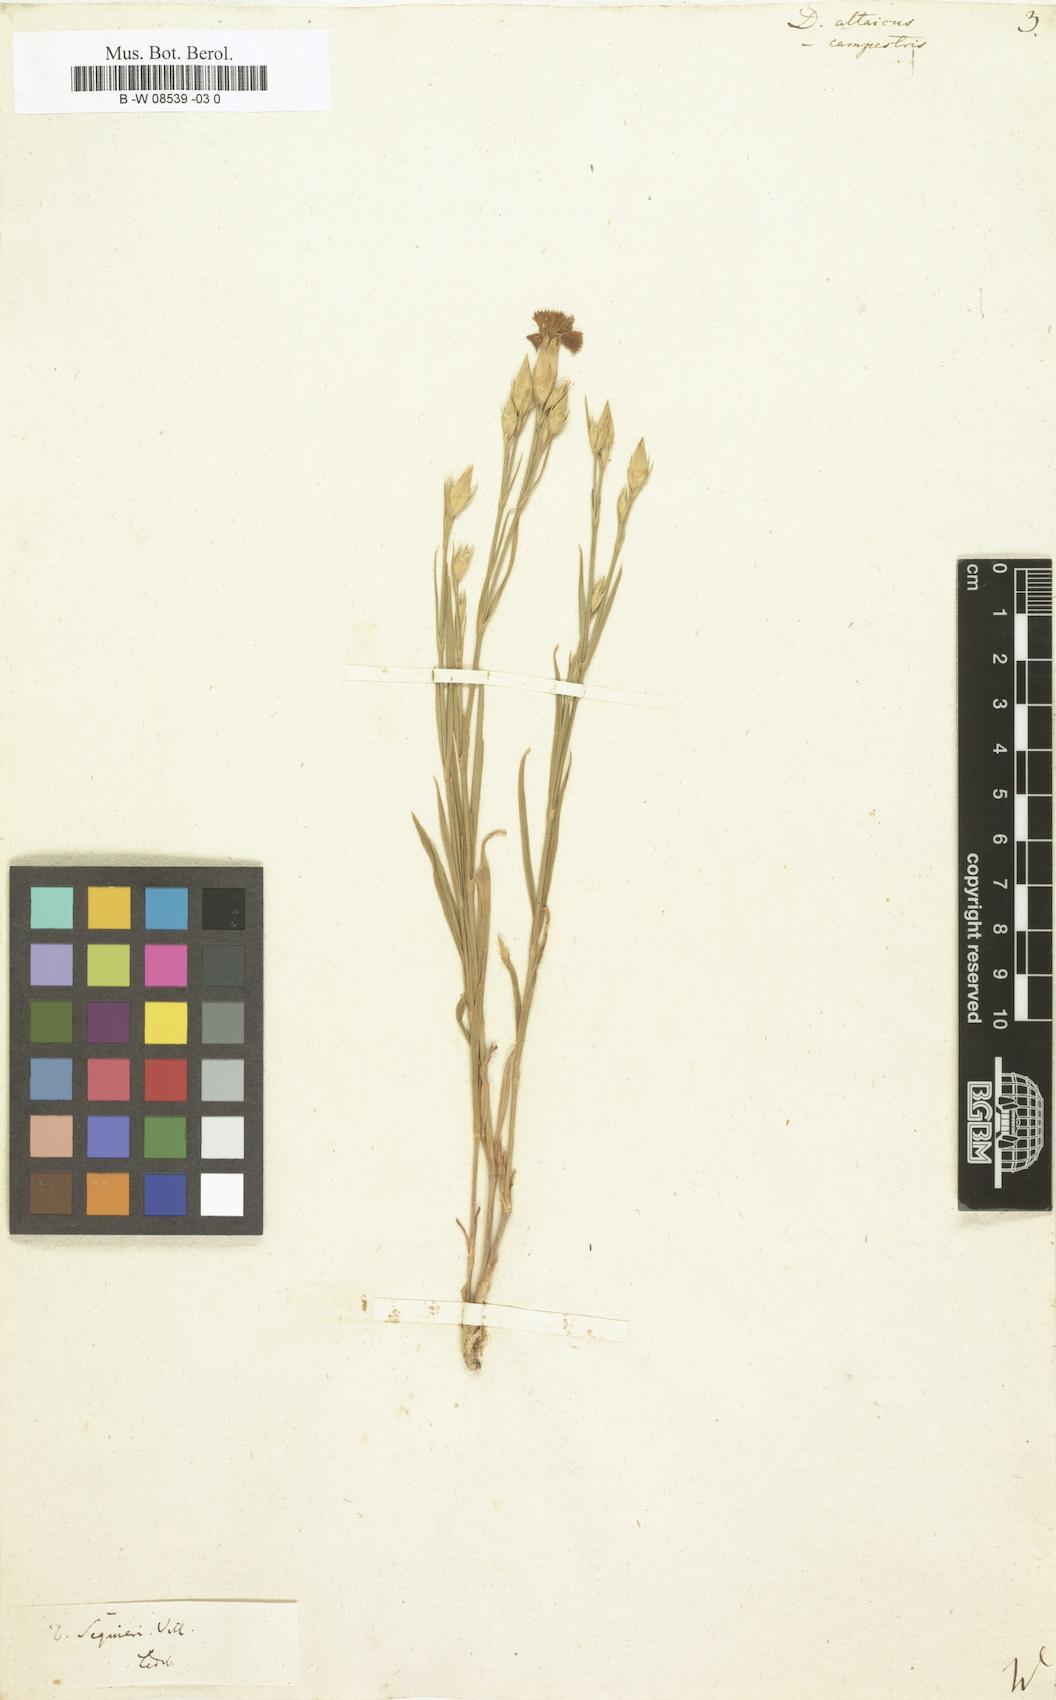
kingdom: Plantae
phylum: Tracheophyta
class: Magnoliopsida
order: Caryophyllales
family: Caryophyllaceae
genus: Dianthus
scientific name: Dianthus altaicus
